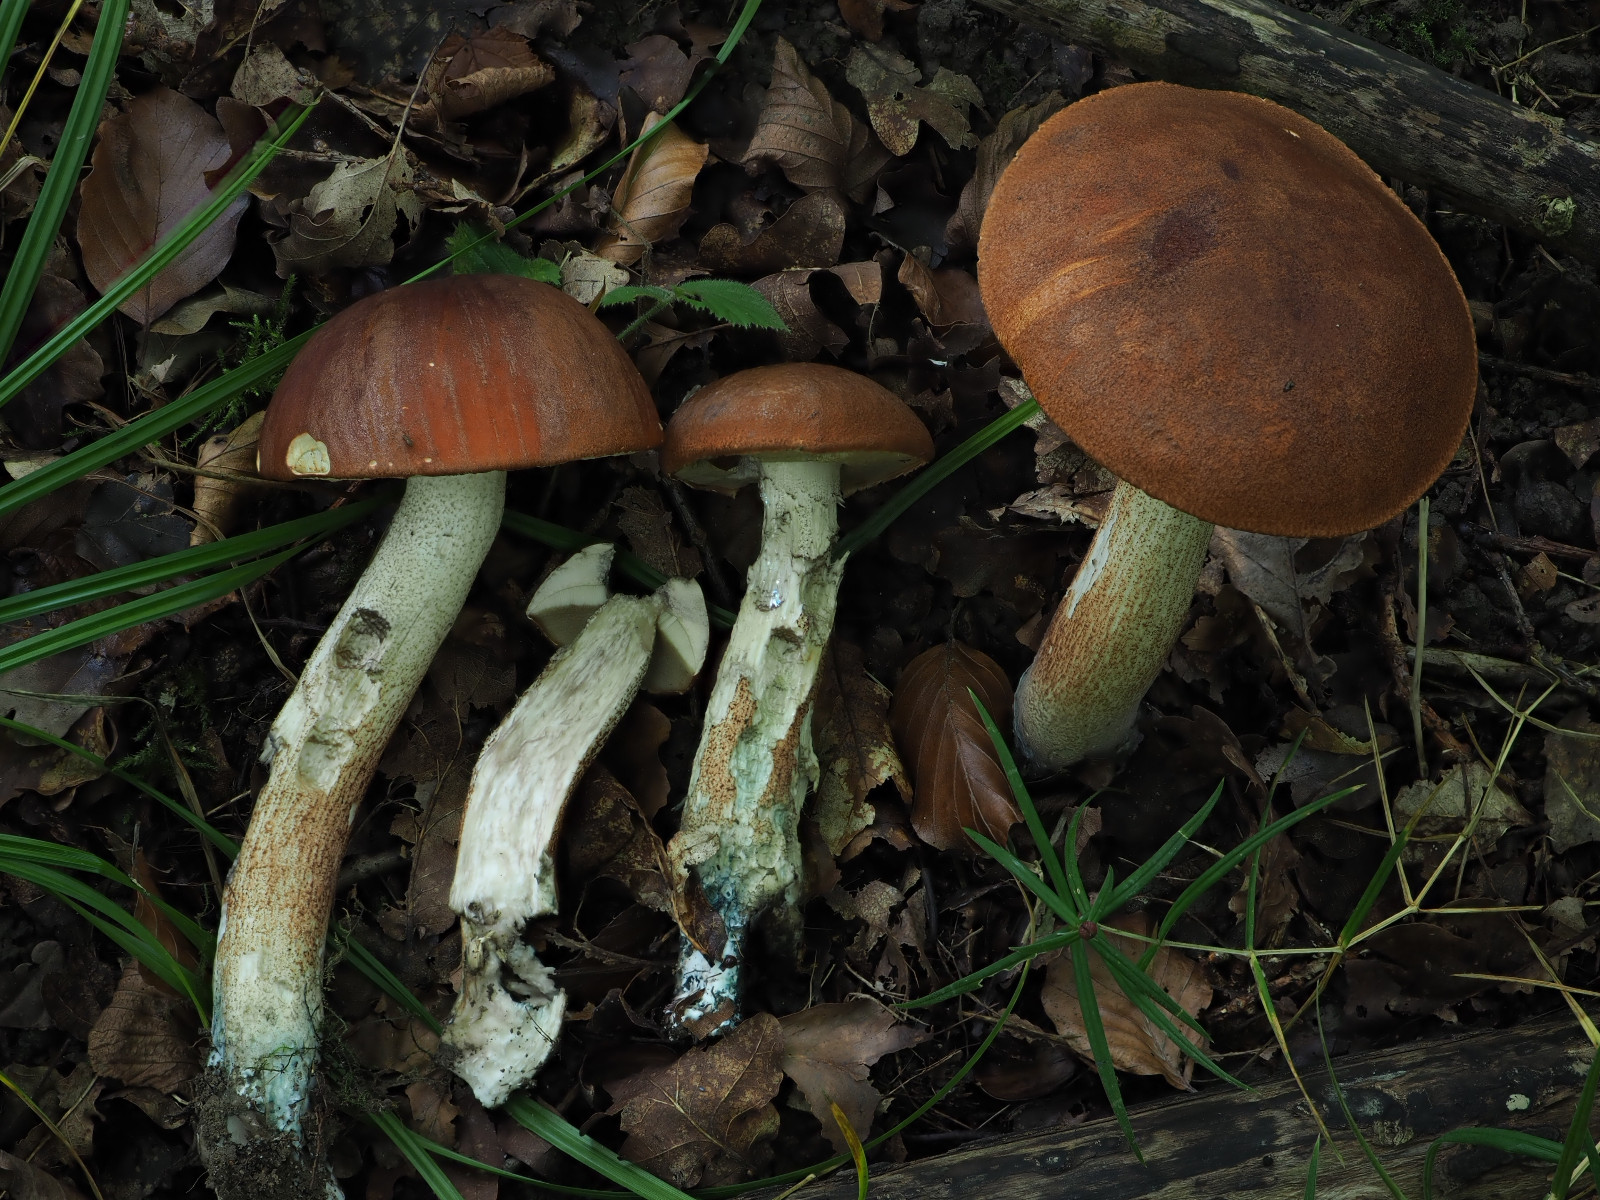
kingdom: Fungi
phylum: Basidiomycota
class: Agaricomycetes
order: Boletales
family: Boletaceae
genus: Leccinum
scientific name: Leccinum aurantiacum
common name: rustrød skælrørhat
